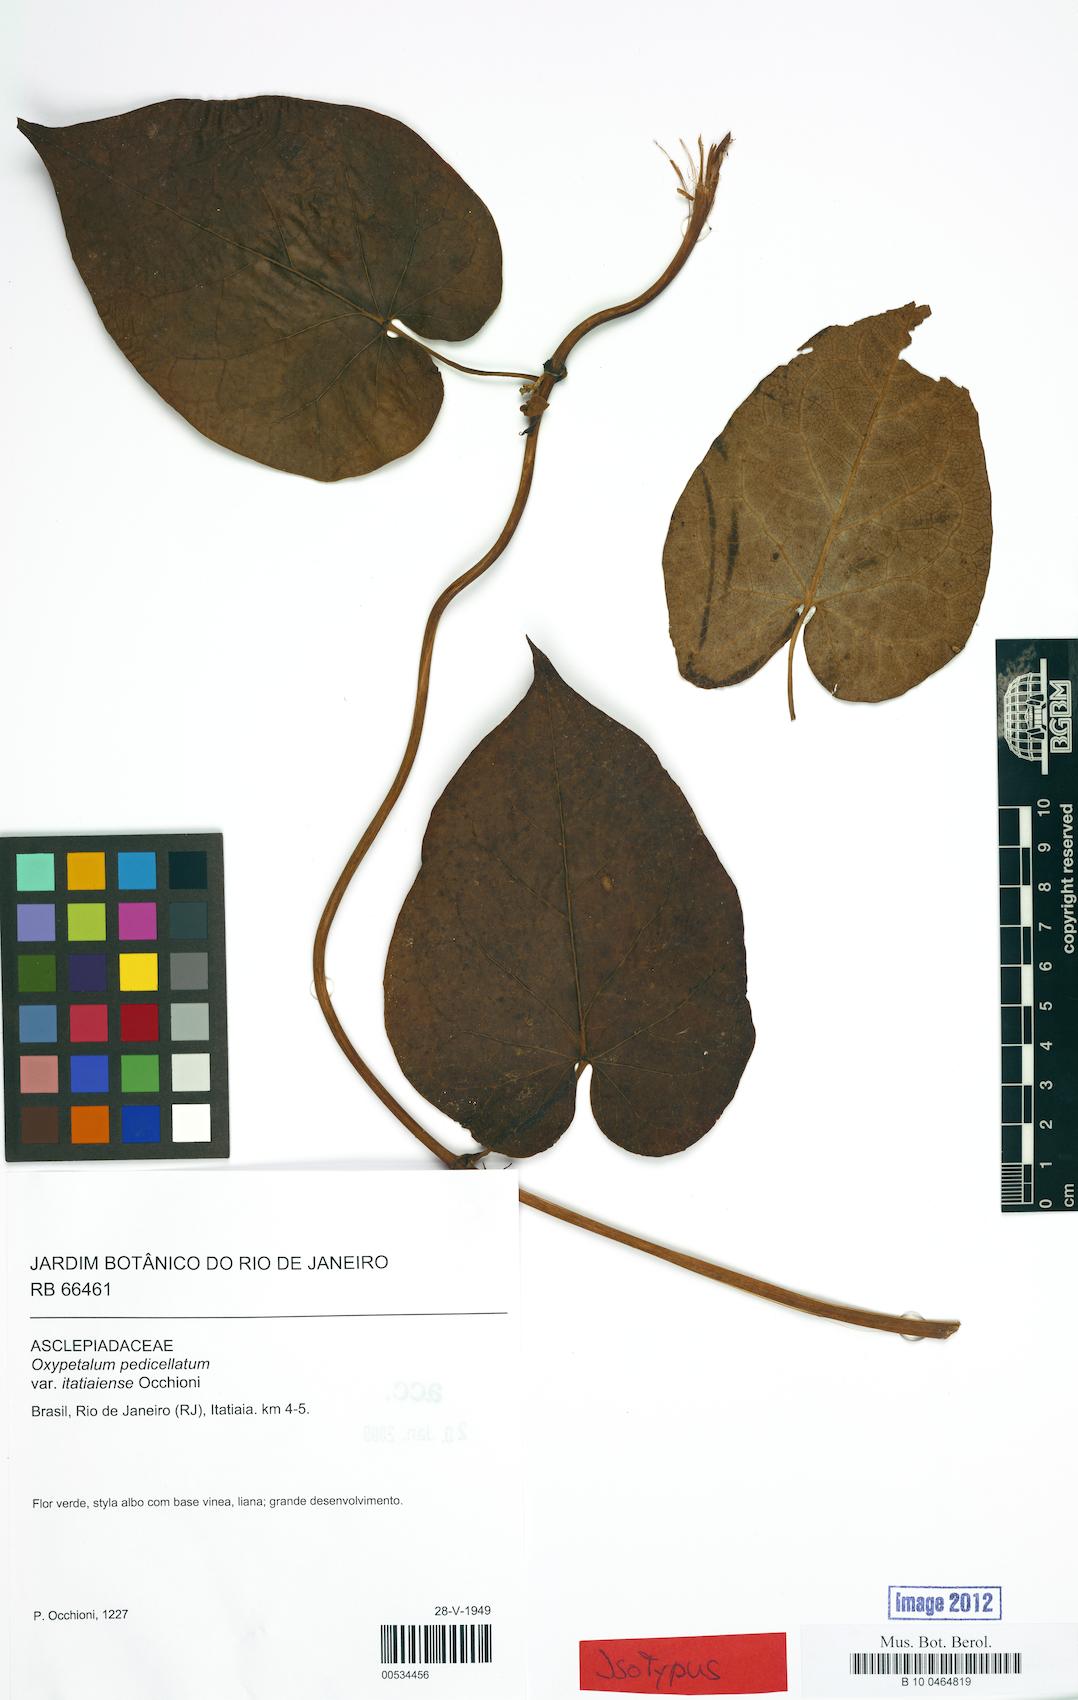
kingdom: Plantae
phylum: Tracheophyta
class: Magnoliopsida
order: Gentianales
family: Apocynaceae
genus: Oxypetalum
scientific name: Oxypetalum cordifolium
